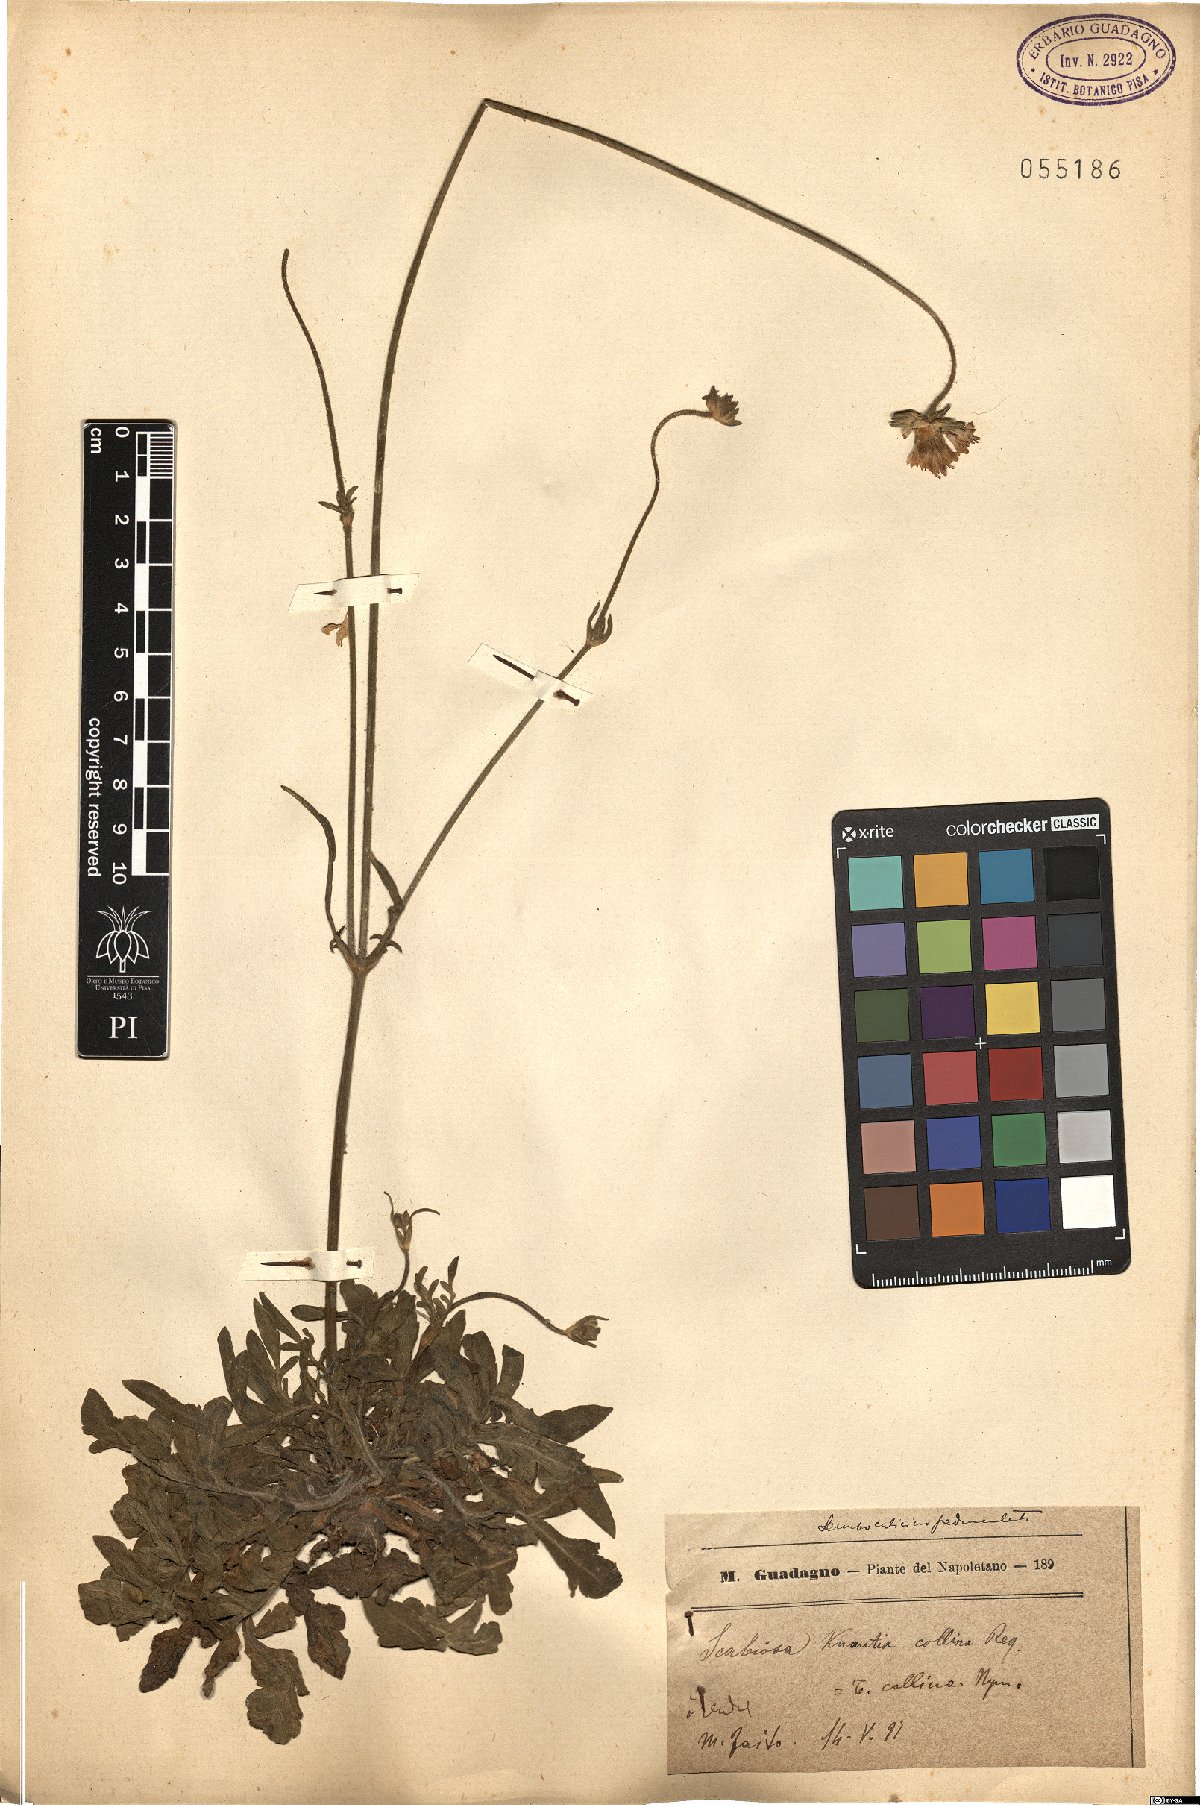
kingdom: Plantae
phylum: Tracheophyta
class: Magnoliopsida
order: Dipsacales
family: Caprifoliaceae
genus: Knautia
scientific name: Knautia collina
